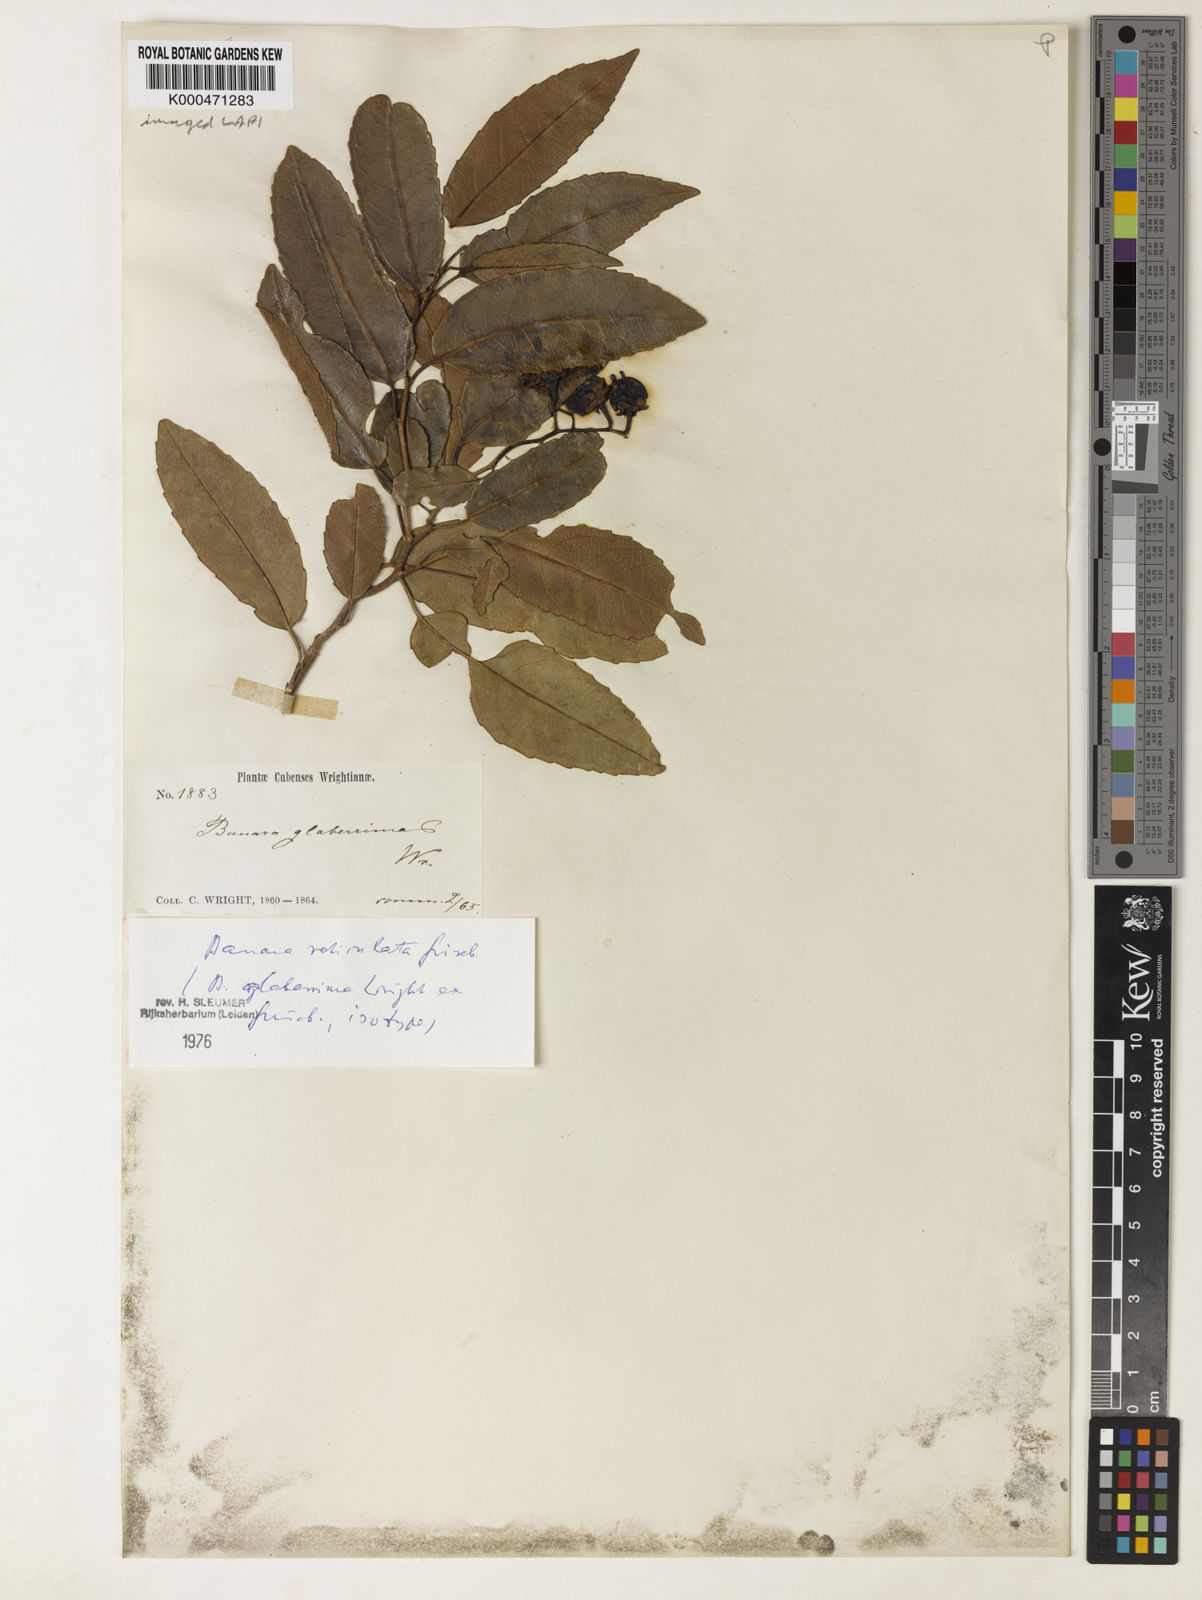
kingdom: Plantae
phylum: Tracheophyta
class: Magnoliopsida
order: Malpighiales
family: Salicaceae
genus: Banara
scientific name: Banara minutiflora
